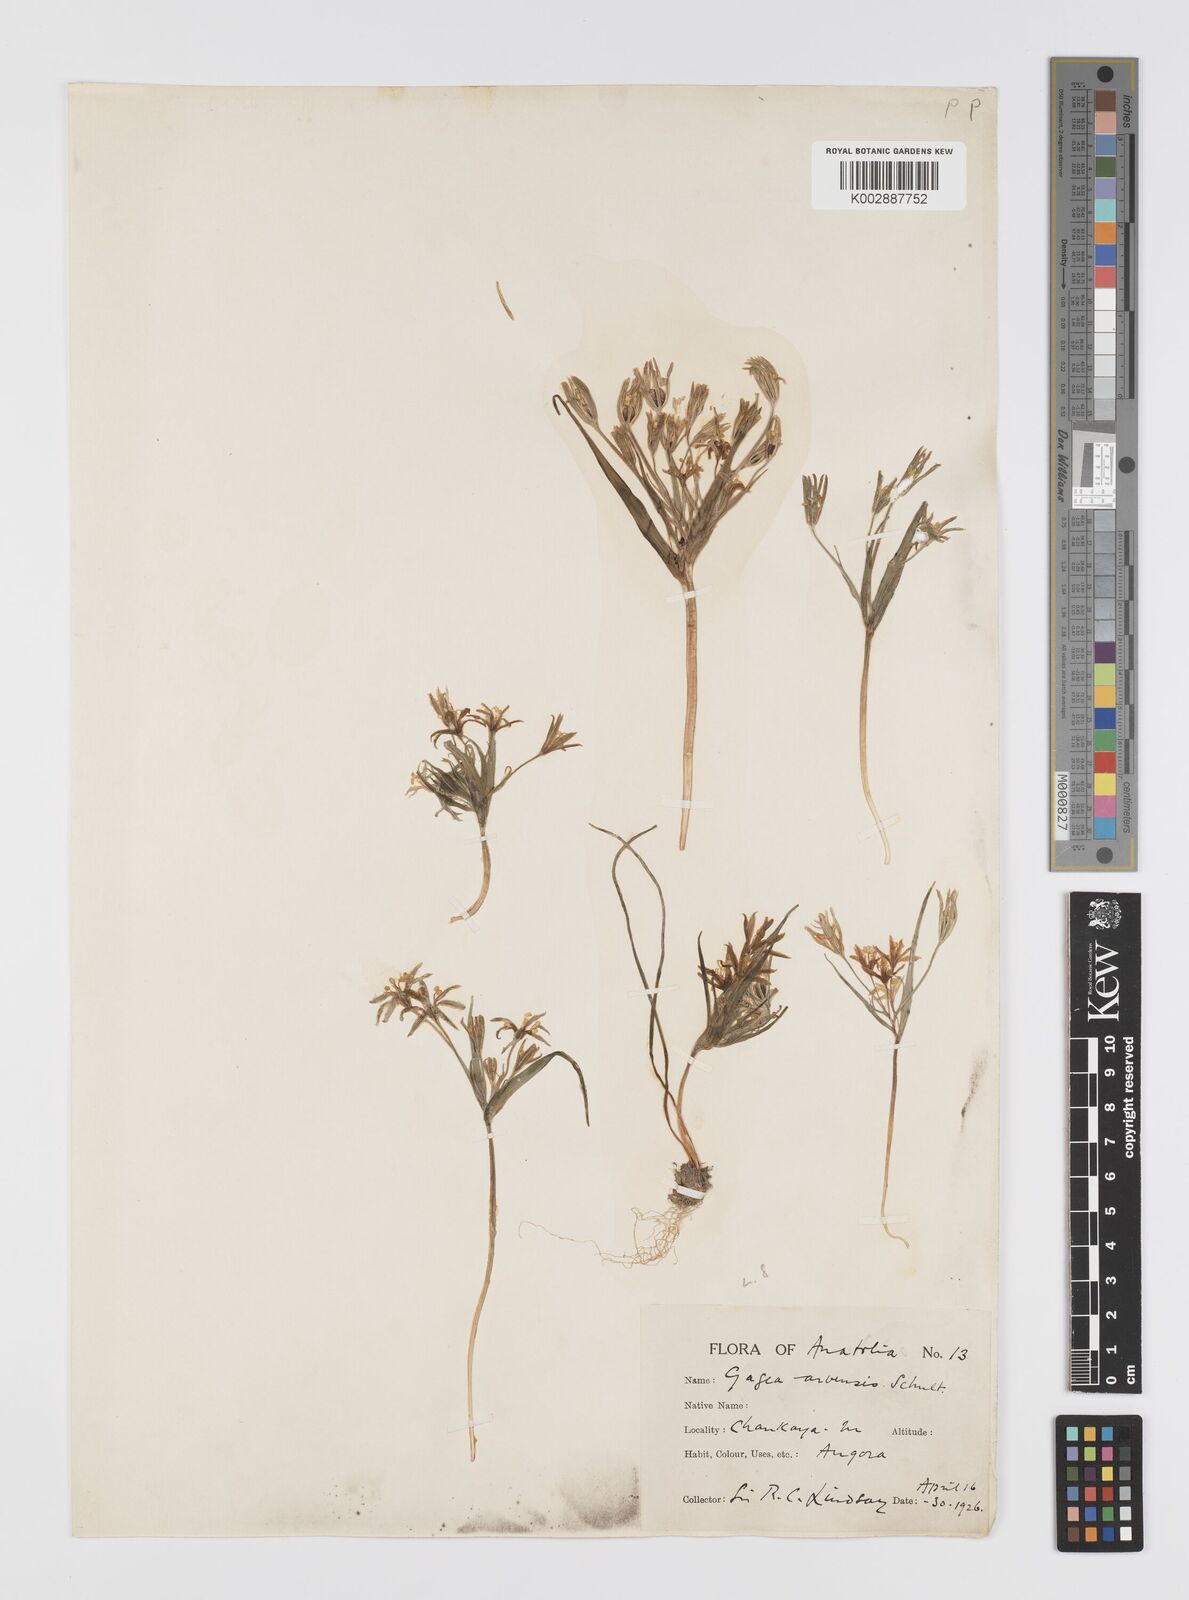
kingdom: Plantae
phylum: Tracheophyta
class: Liliopsida
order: Liliales
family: Liliaceae
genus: Gagea
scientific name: Gagea minima
